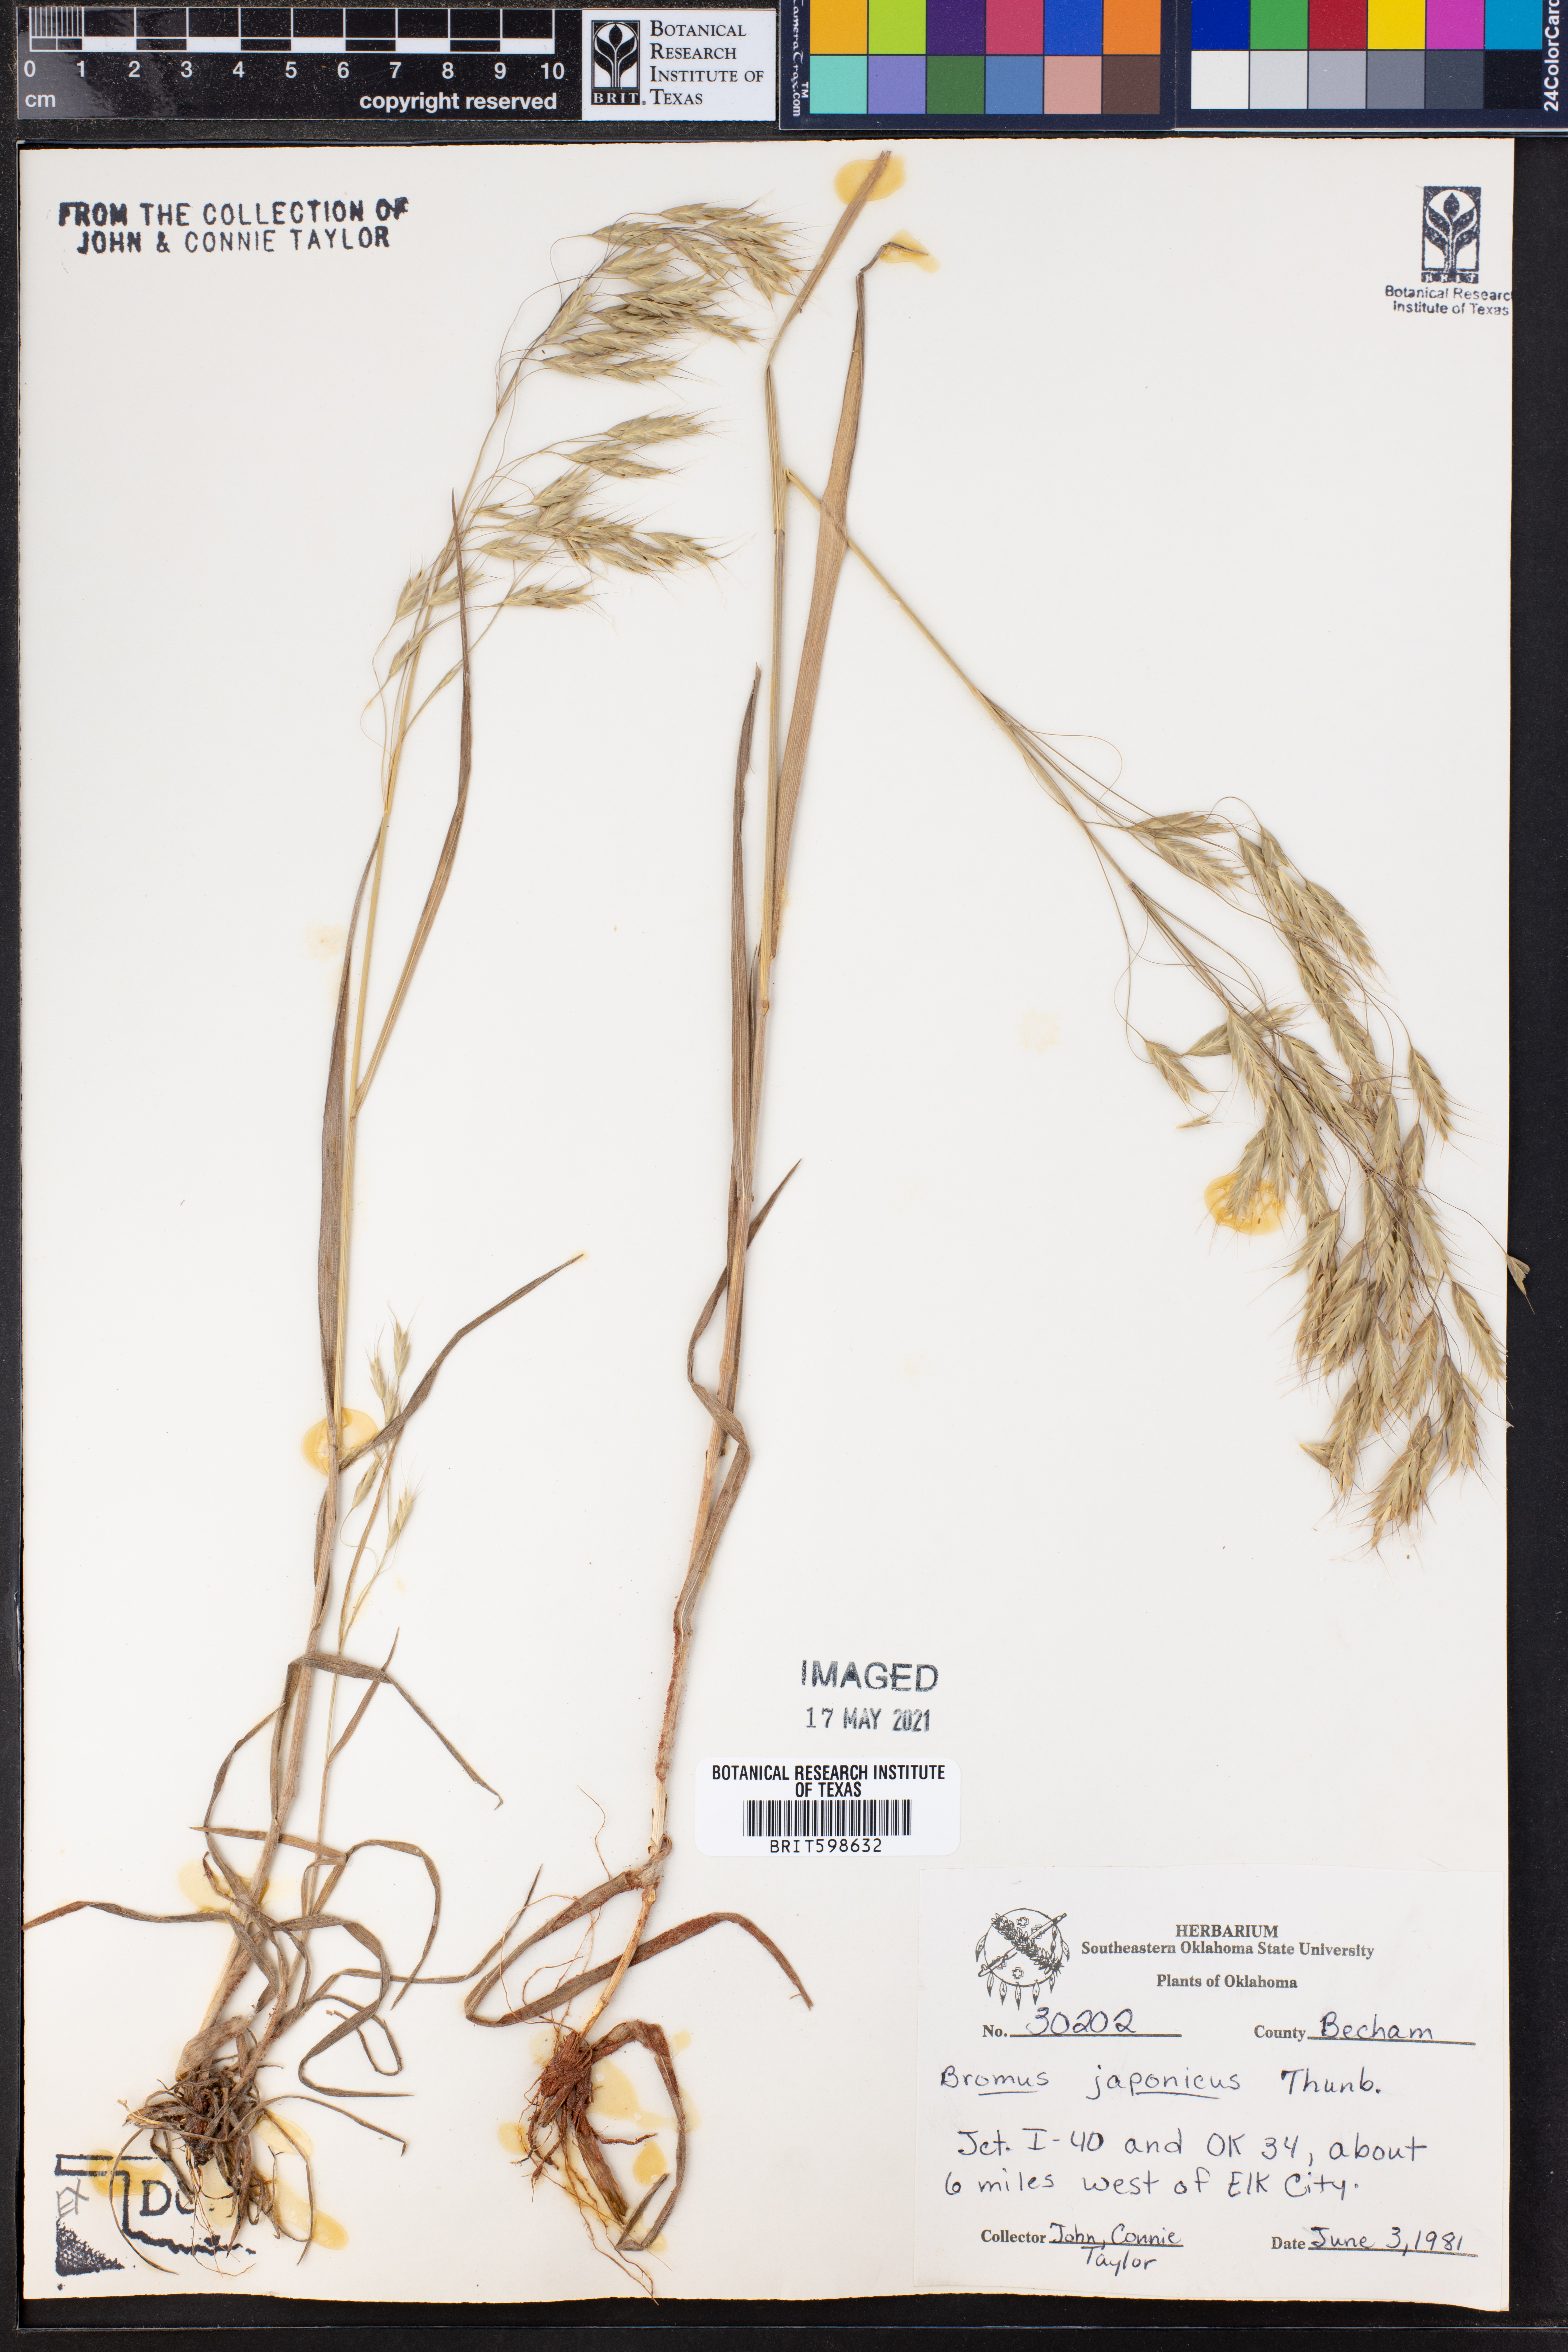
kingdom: Plantae
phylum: Tracheophyta
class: Liliopsida
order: Poales
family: Poaceae
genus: Bromus
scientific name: Bromus japonicus
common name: Japanese brome
